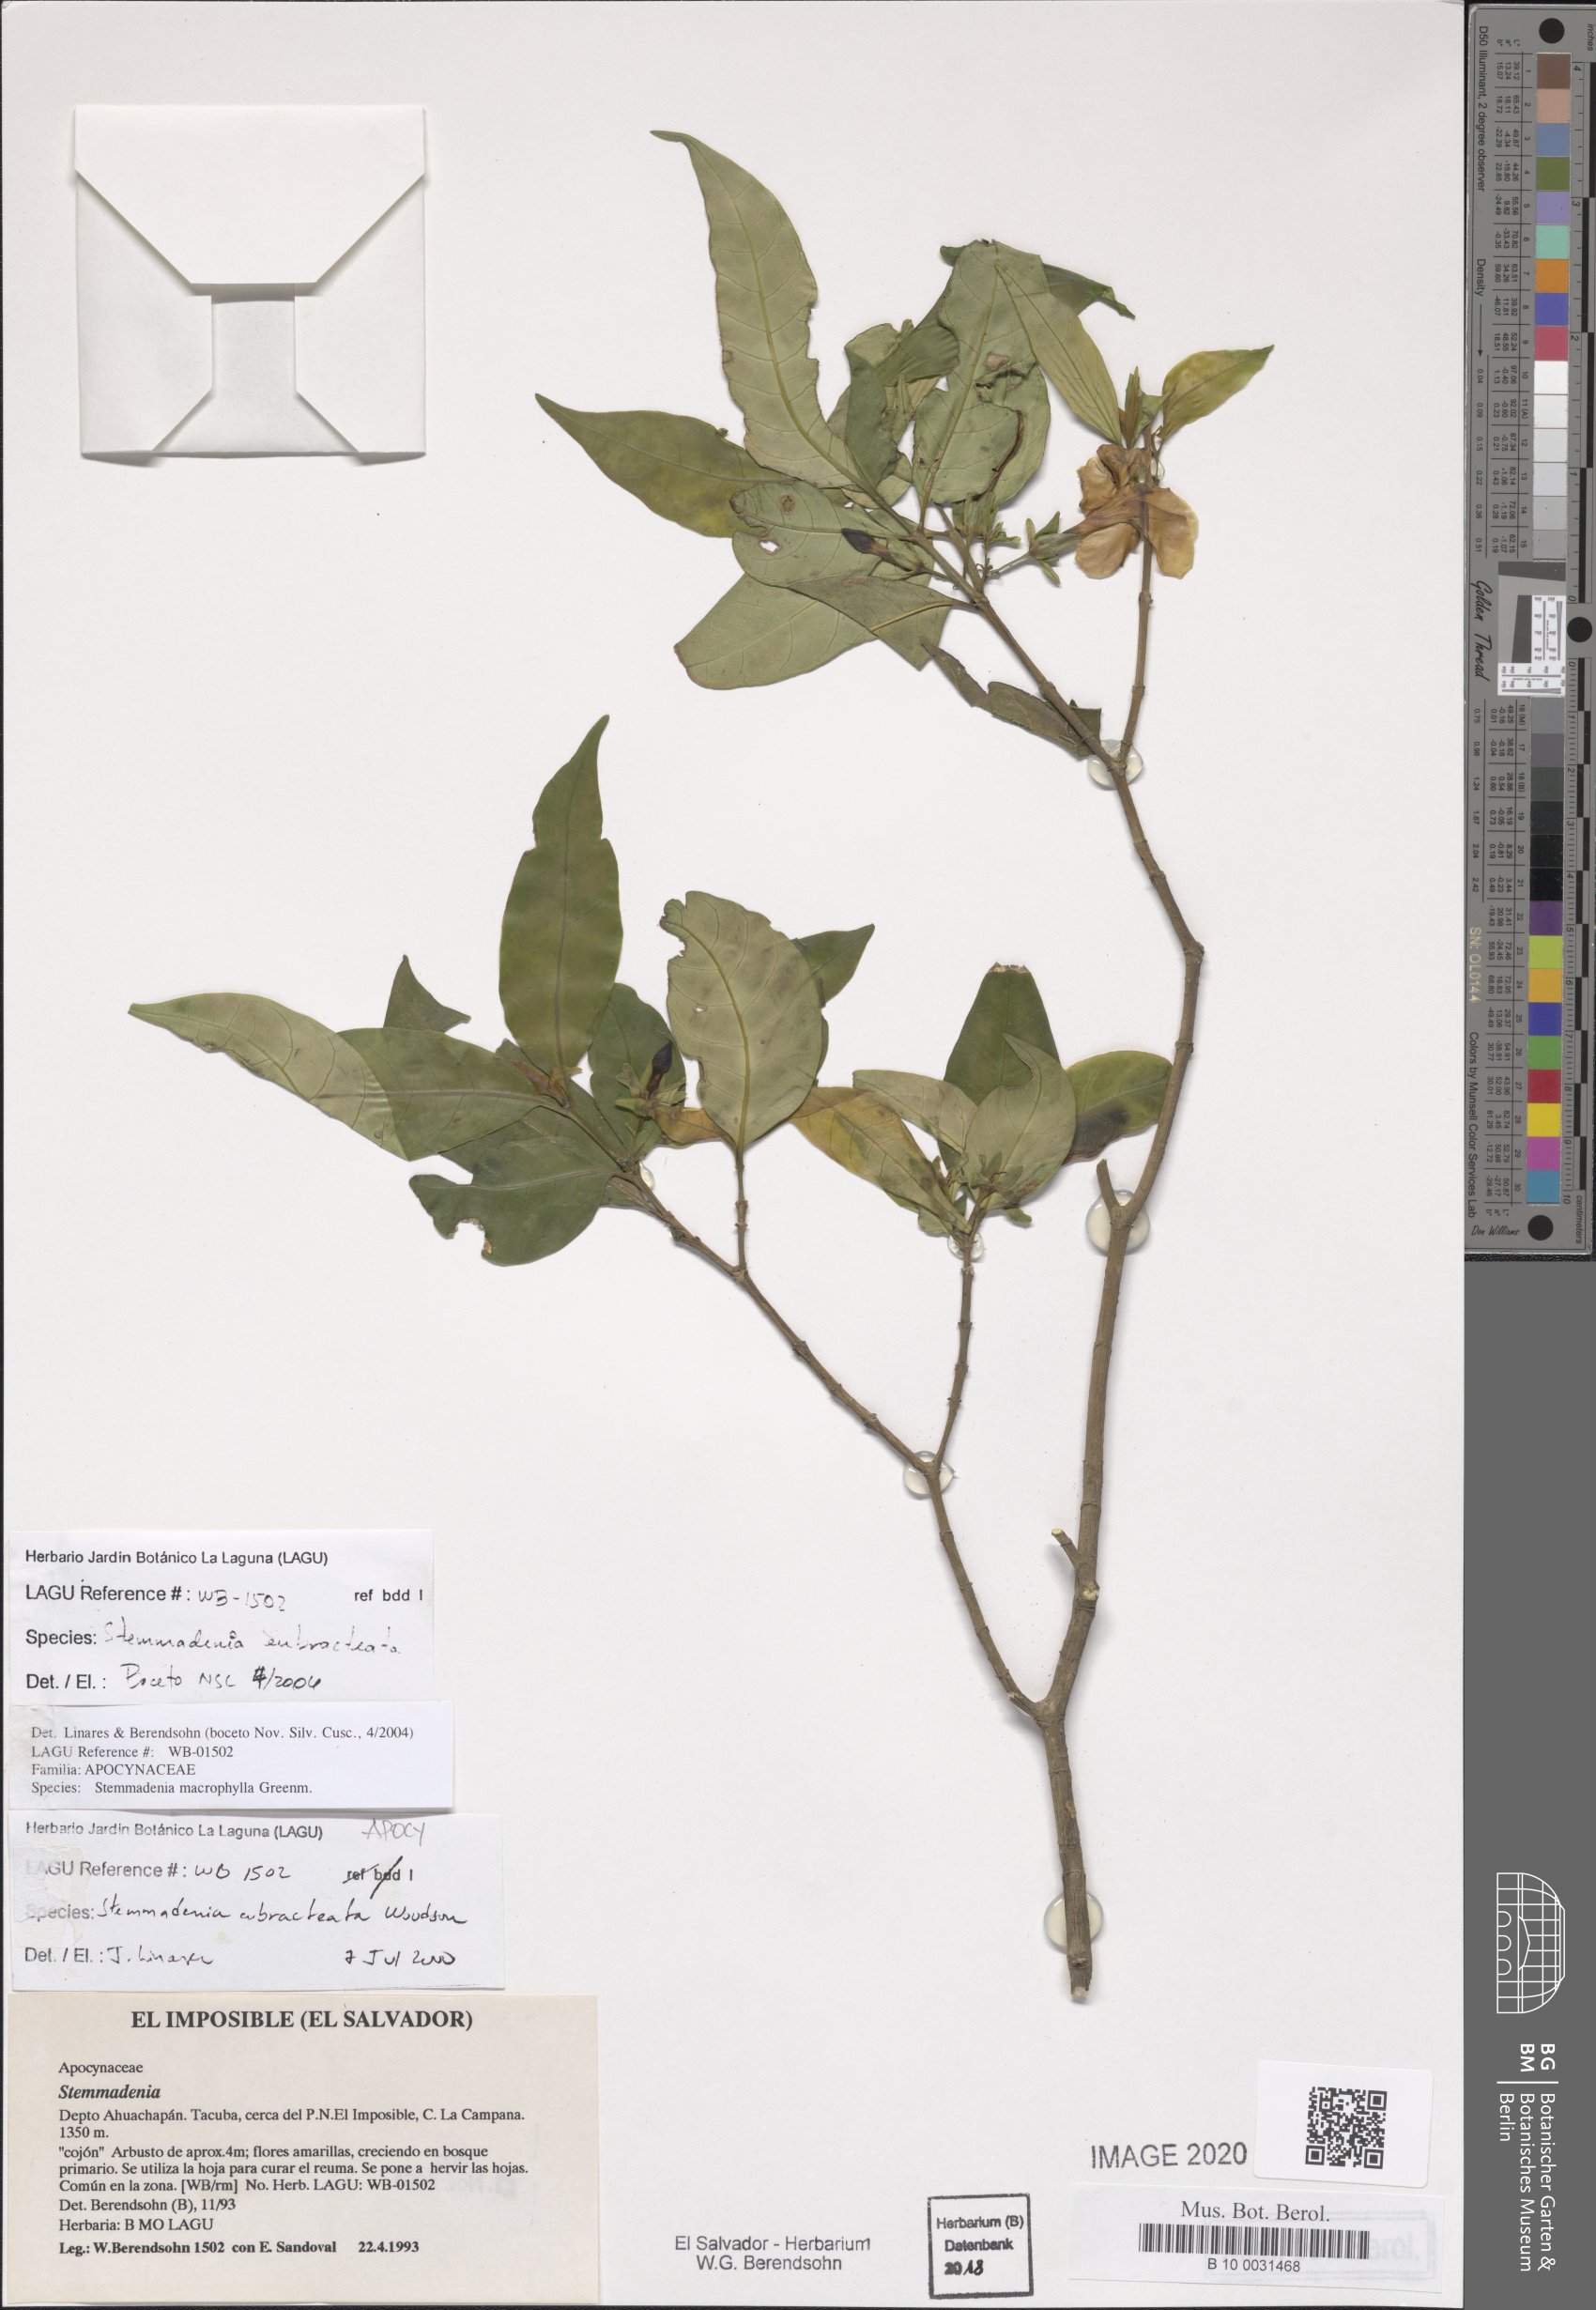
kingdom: Plantae
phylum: Tracheophyta
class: Magnoliopsida
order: Gentianales
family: Apocynaceae
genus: Tabernaemontana
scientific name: Tabernaemontana eubracteata
